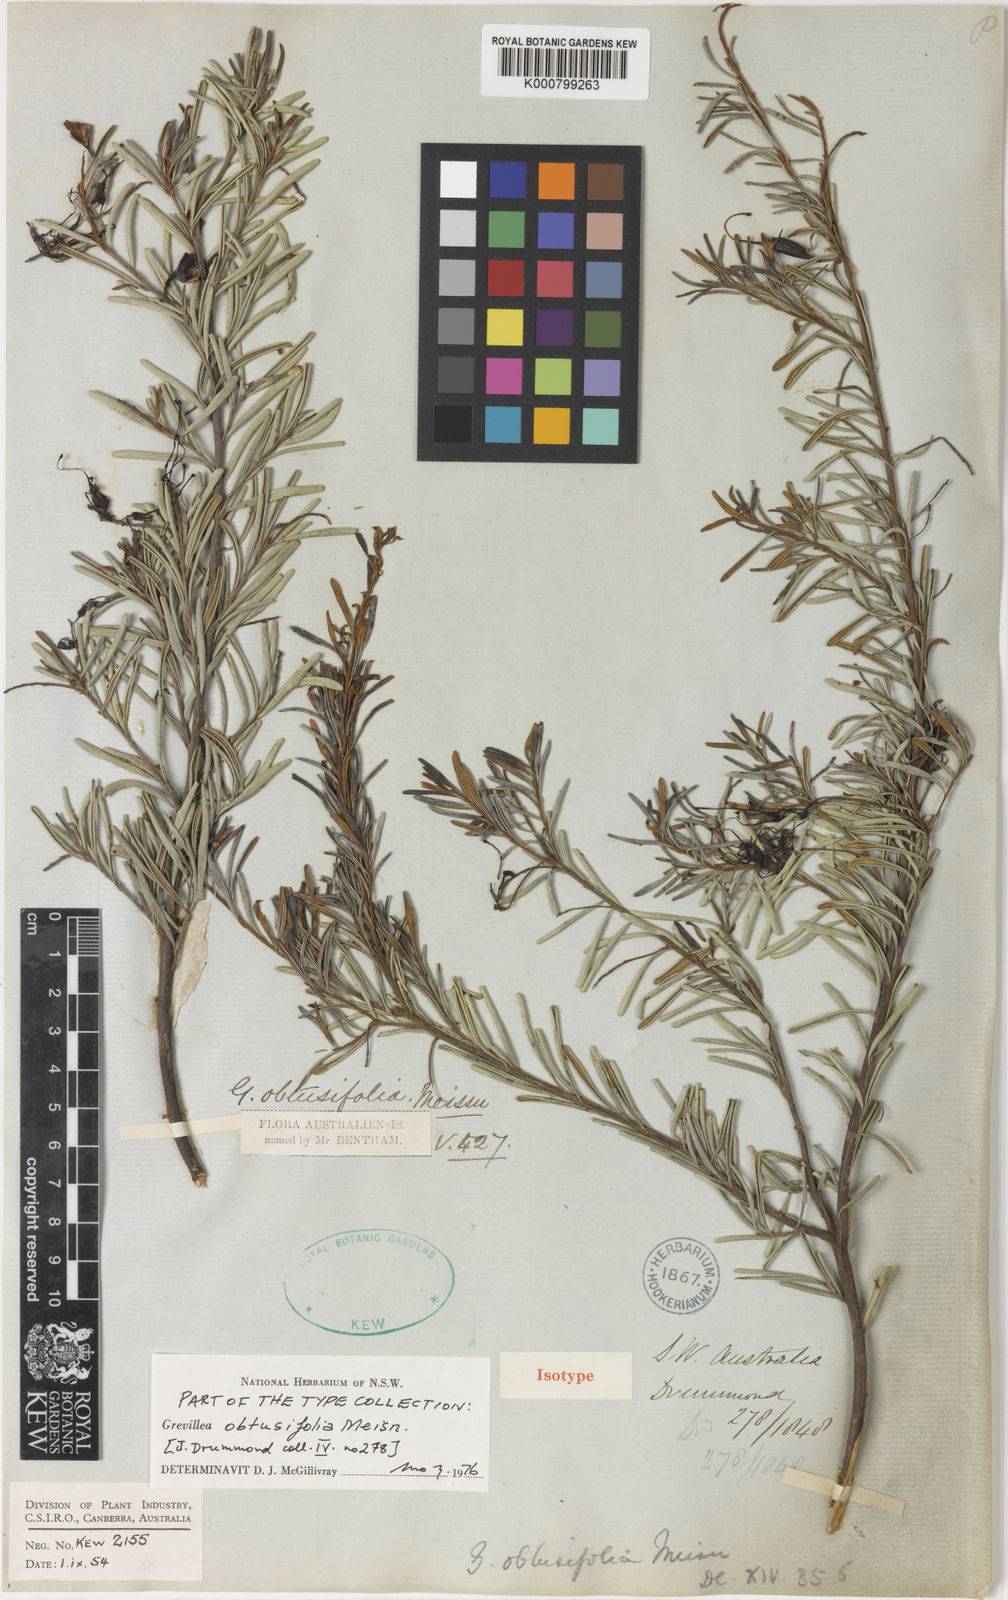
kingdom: Plantae
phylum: Tracheophyta
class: Magnoliopsida
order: Proteales
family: Proteaceae
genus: Grevillea
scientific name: Grevillea obtusifolia
